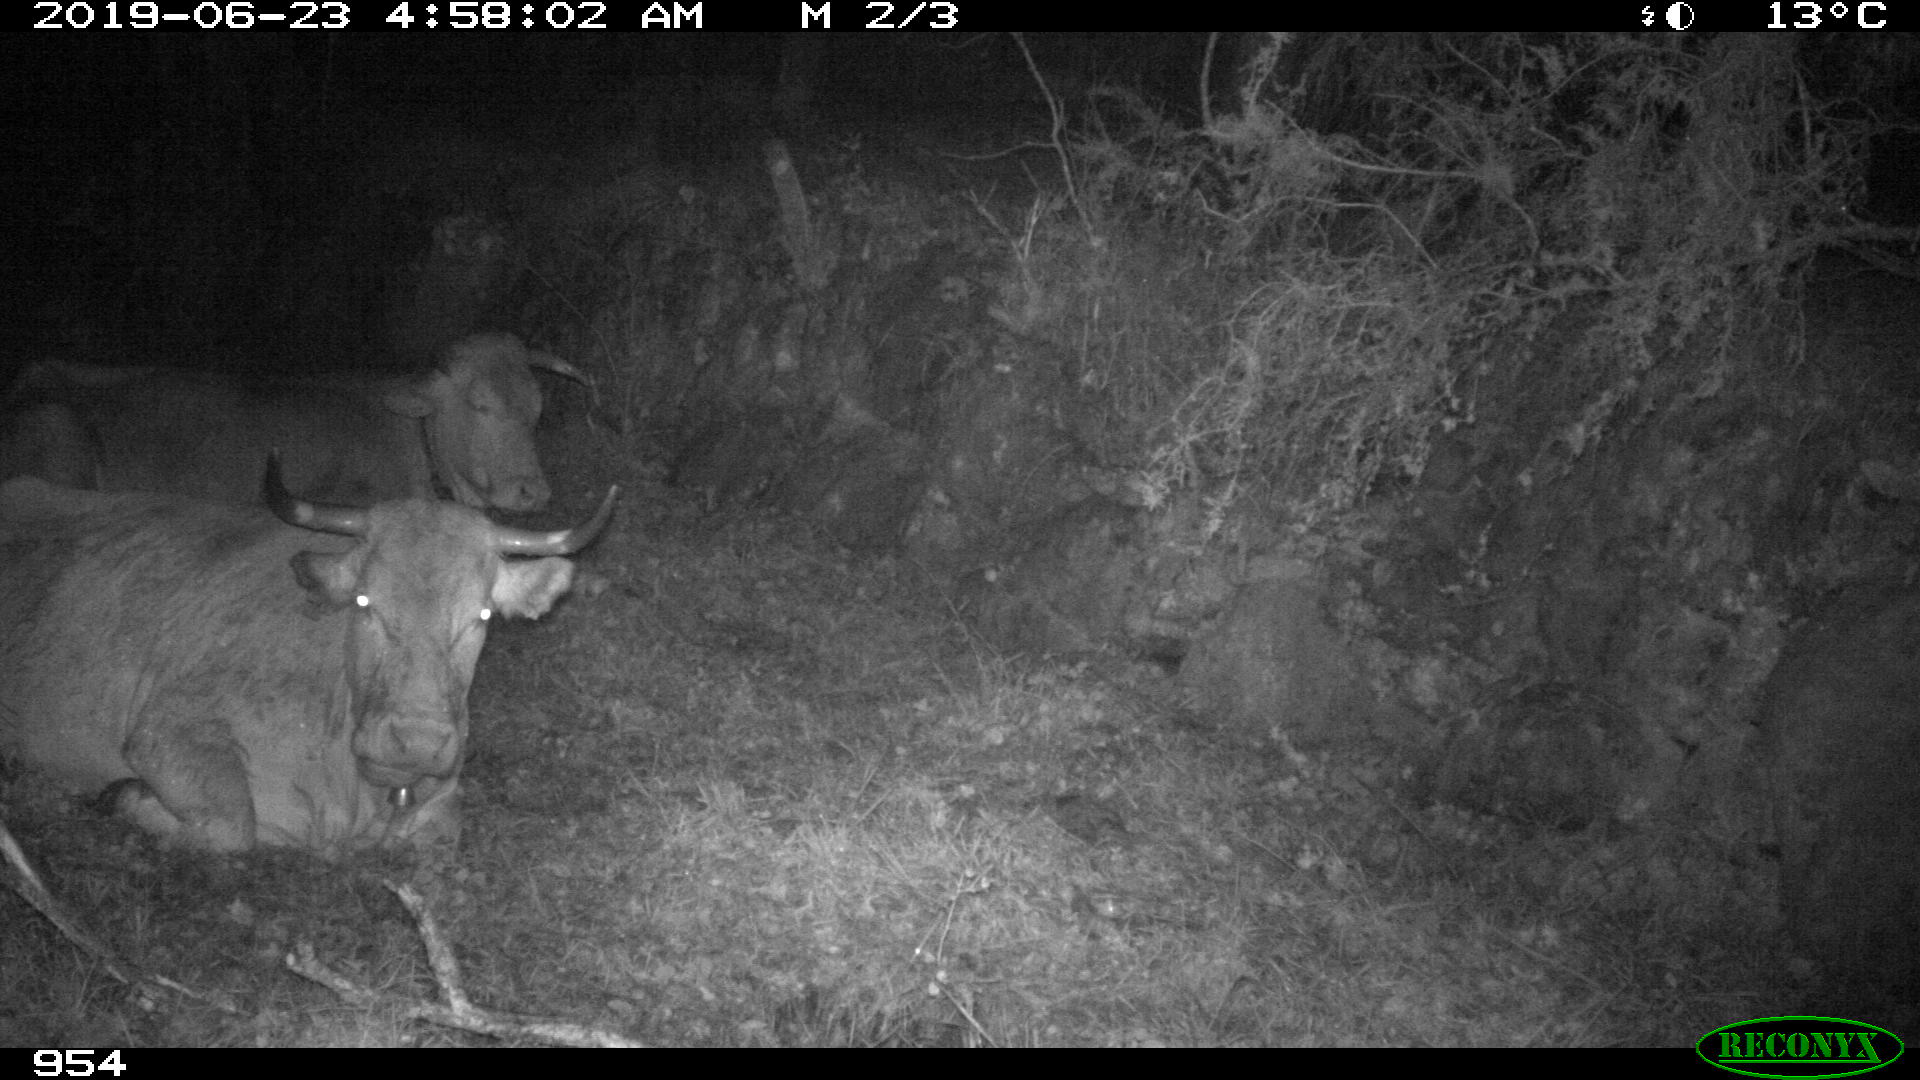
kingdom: Animalia
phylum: Chordata
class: Mammalia
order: Artiodactyla
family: Bovidae
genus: Bos
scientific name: Bos taurus
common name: Domesticated cattle
